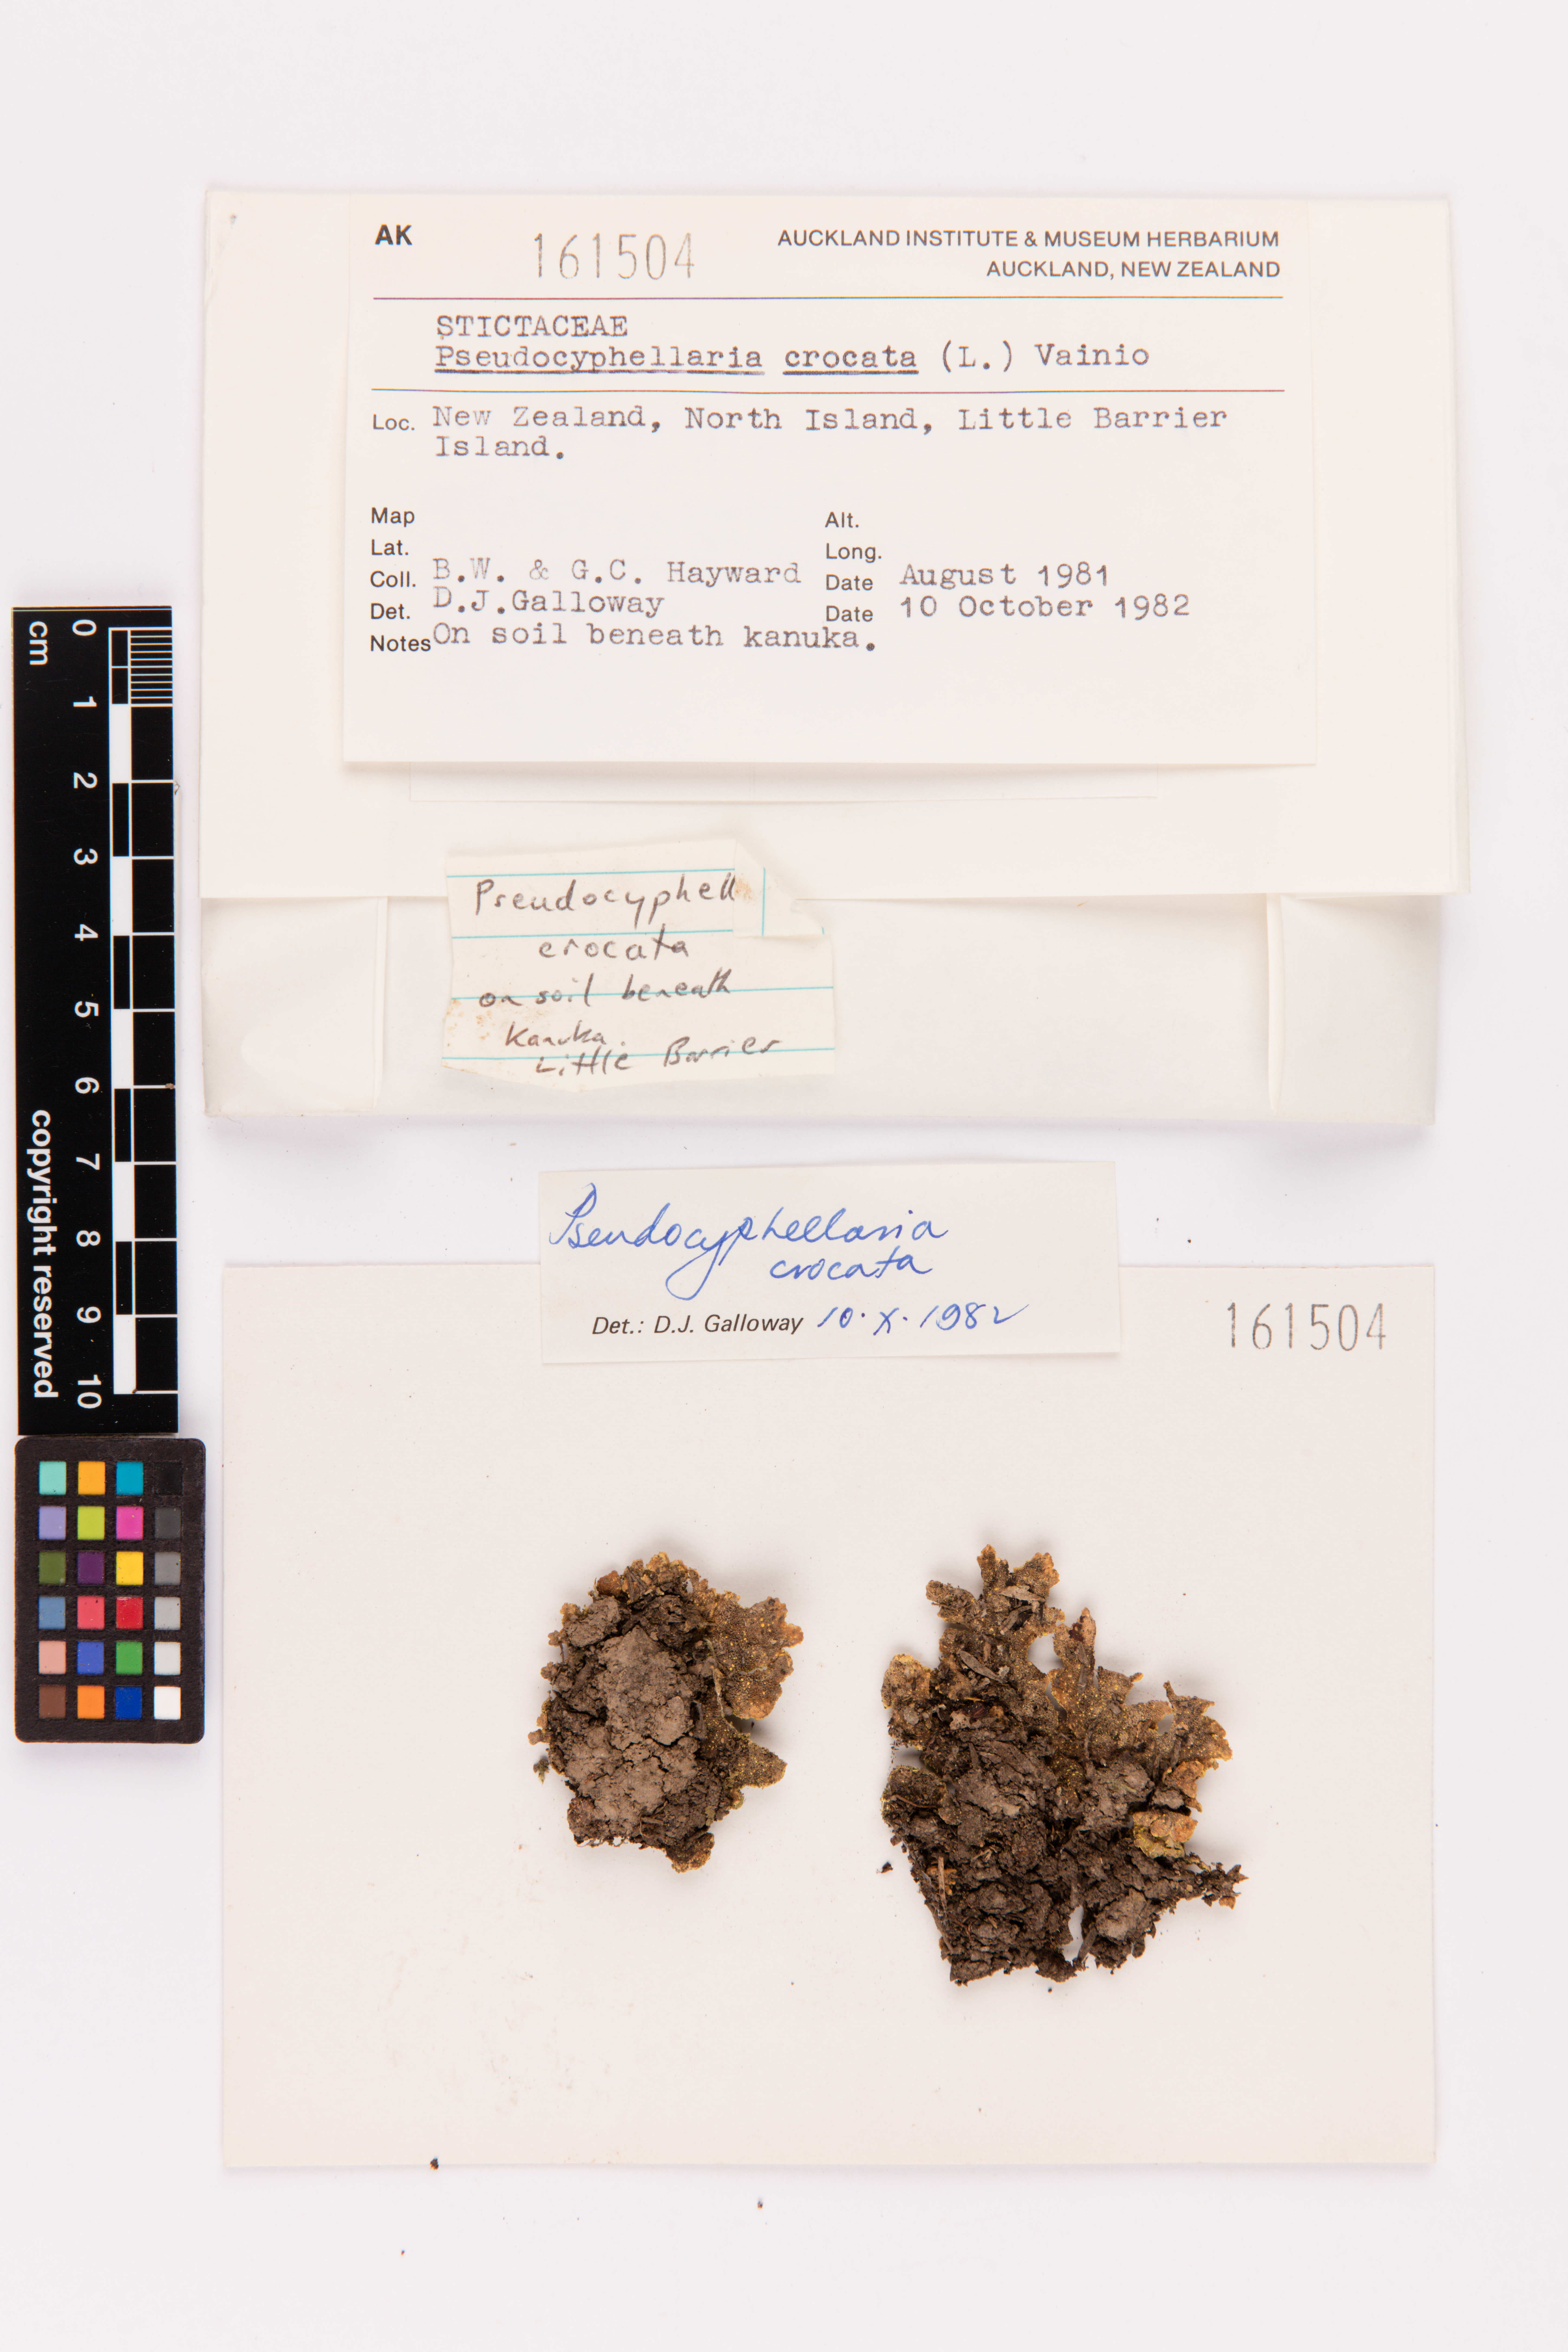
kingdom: Fungi
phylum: Ascomycota
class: Lecanoromycetes
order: Peltigerales
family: Lobariaceae
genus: Pseudocyphellaria
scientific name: Pseudocyphellaria crocata
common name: Golden specklebelly
